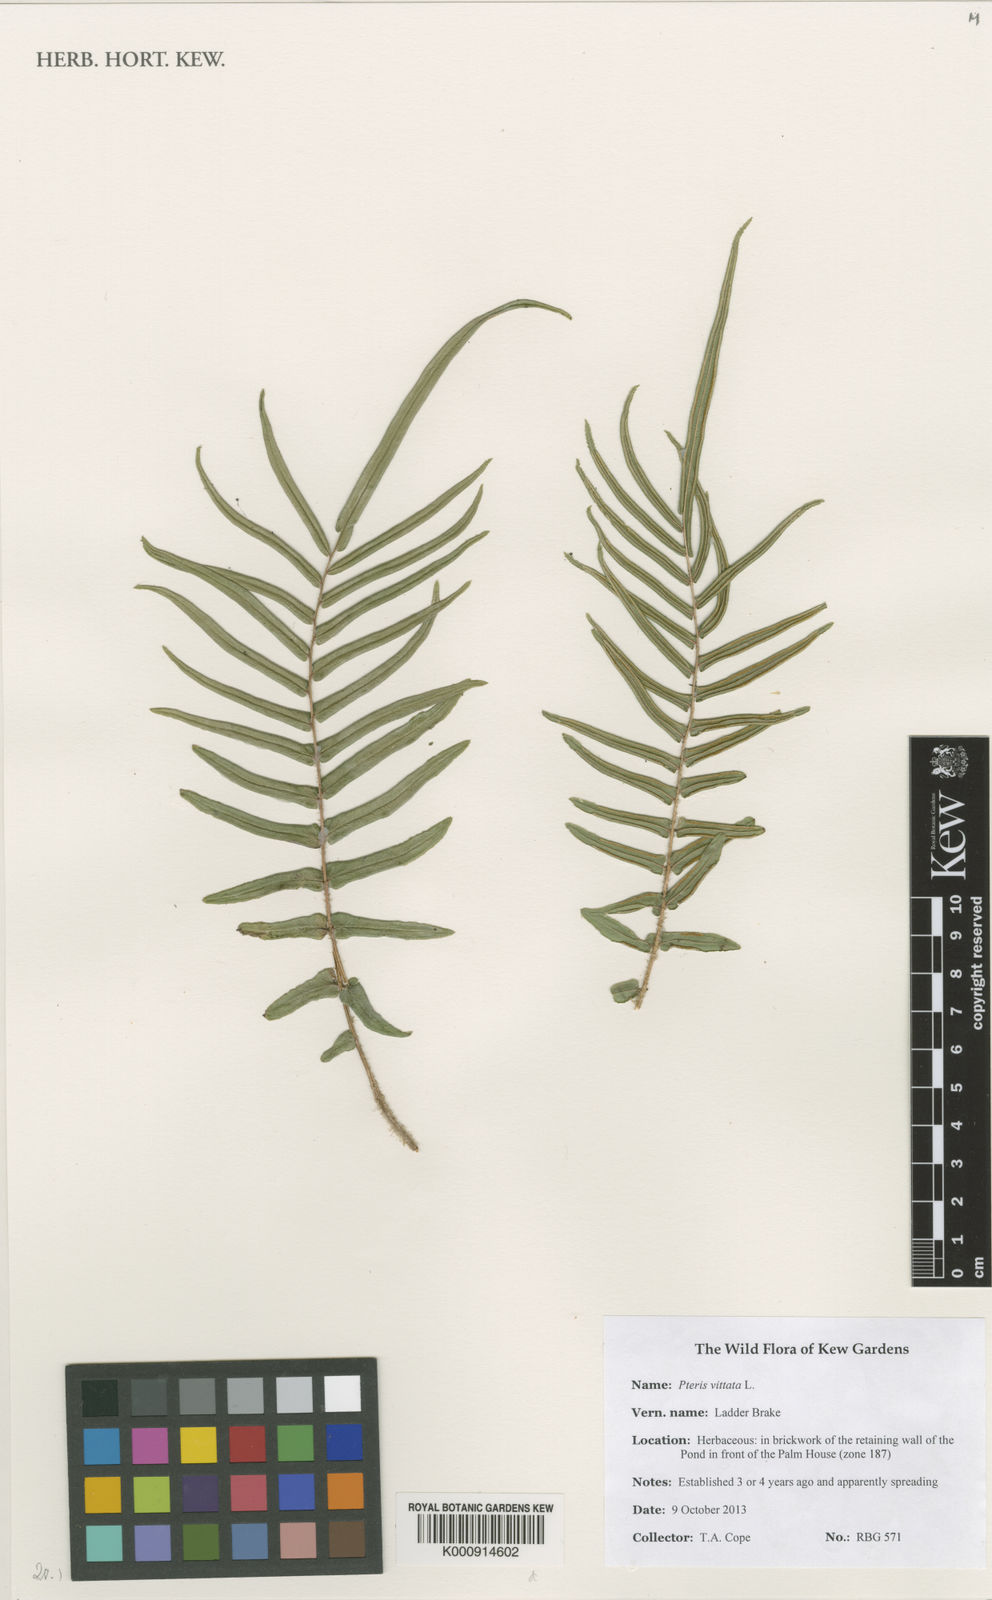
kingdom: Plantae
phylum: Tracheophyta
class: Polypodiopsida
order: Polypodiales
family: Pteridaceae
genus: Pteris
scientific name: Pteris vittata
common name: Ladder brake
